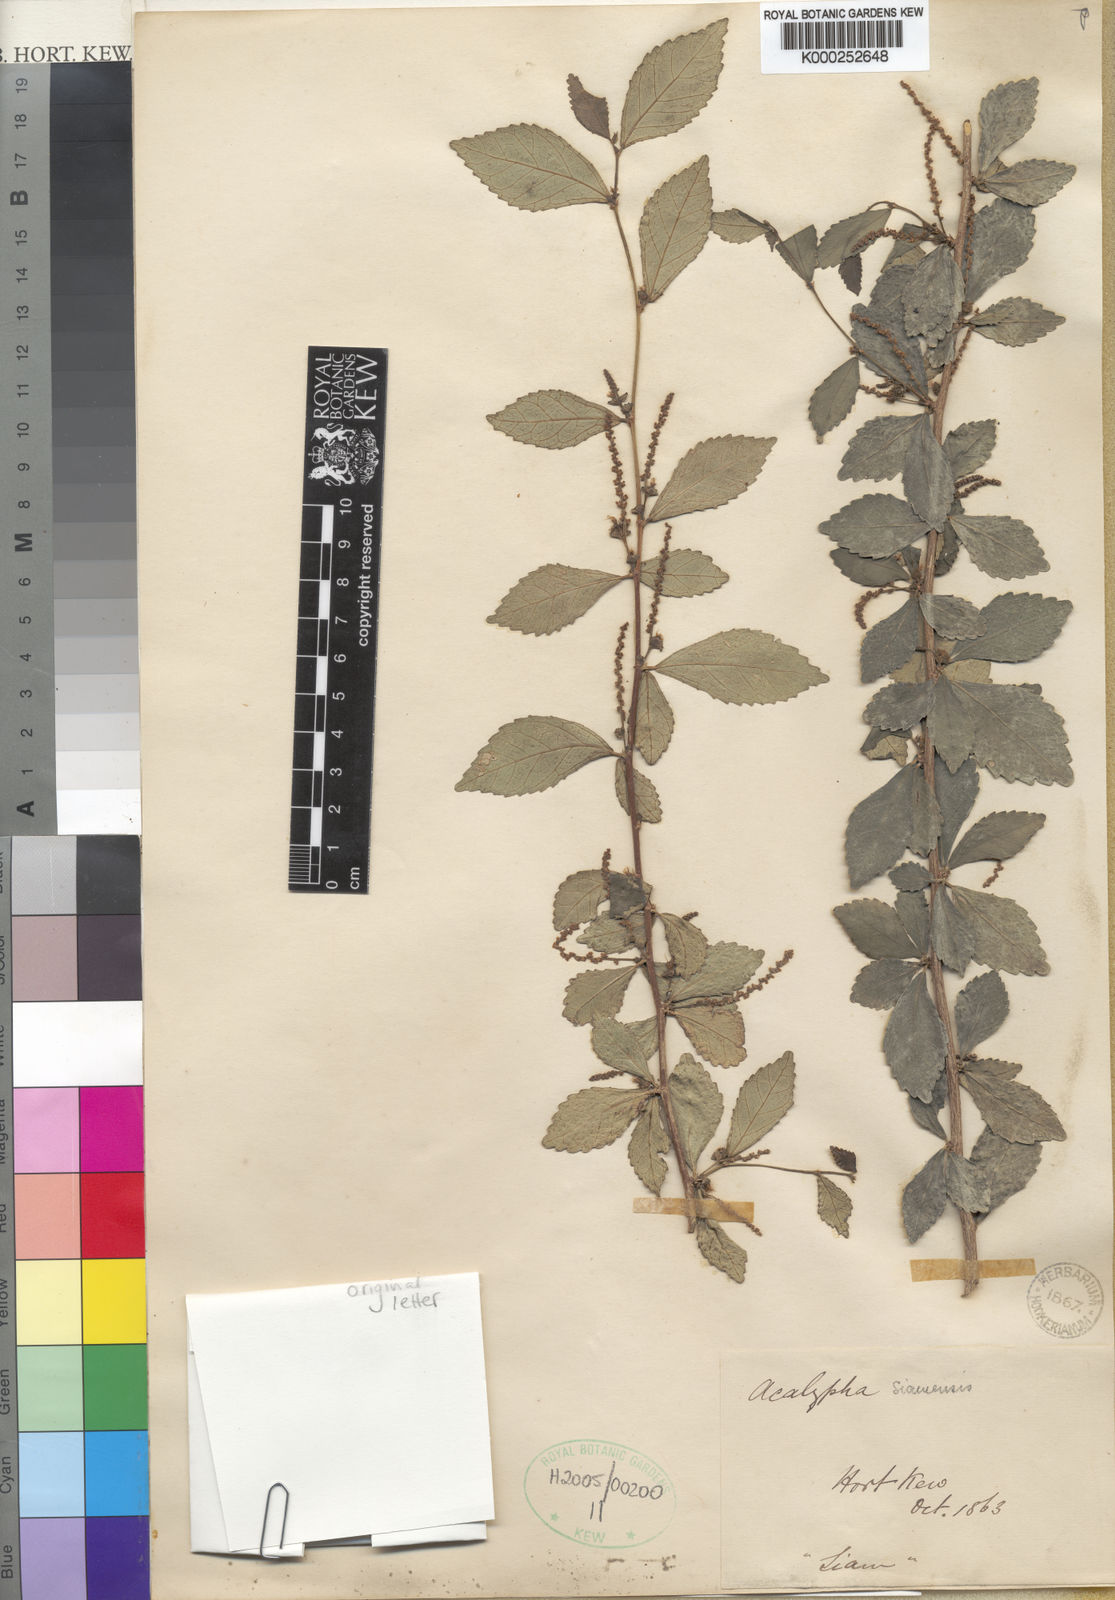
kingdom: Plantae
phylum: Tracheophyta
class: Magnoliopsida
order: Malpighiales
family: Euphorbiaceae
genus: Acalypha
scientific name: Acalypha kerrii
